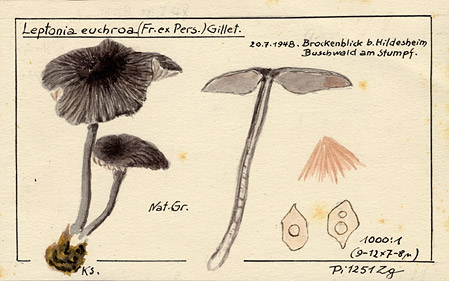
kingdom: Fungi
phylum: Basidiomycota
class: Agaricomycetes
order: Agaricales
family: Entolomataceae
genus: Entoloma
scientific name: Entoloma euchroum
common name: Stump pinkgill
